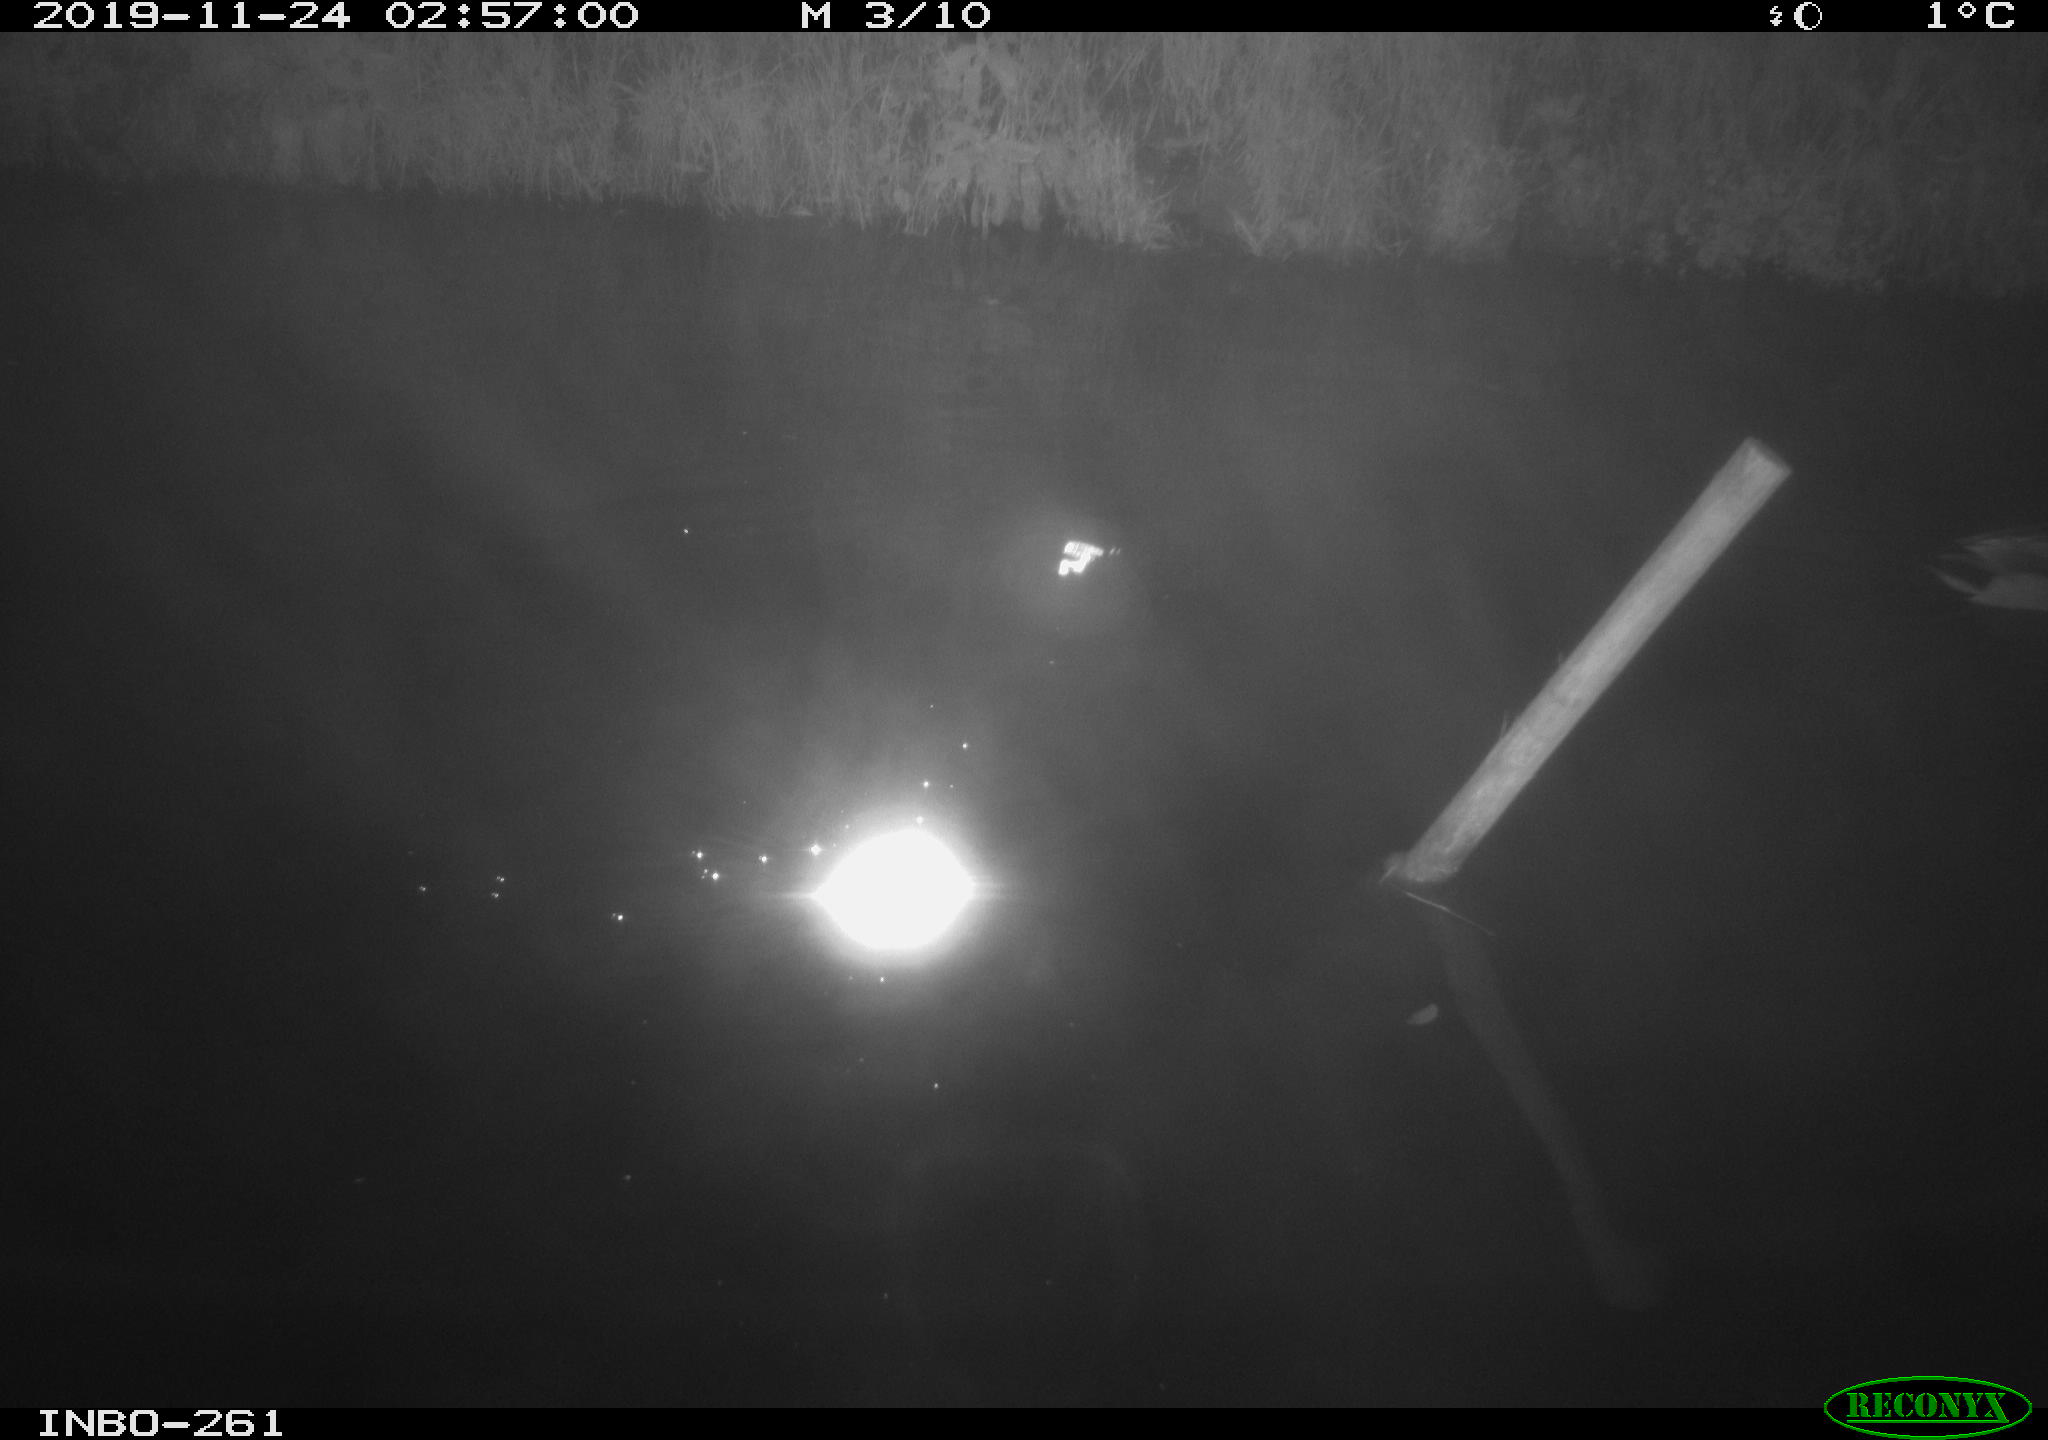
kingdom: Animalia
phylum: Chordata
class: Aves
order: Anseriformes
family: Anatidae
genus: Anas
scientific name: Anas platyrhynchos
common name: Mallard
